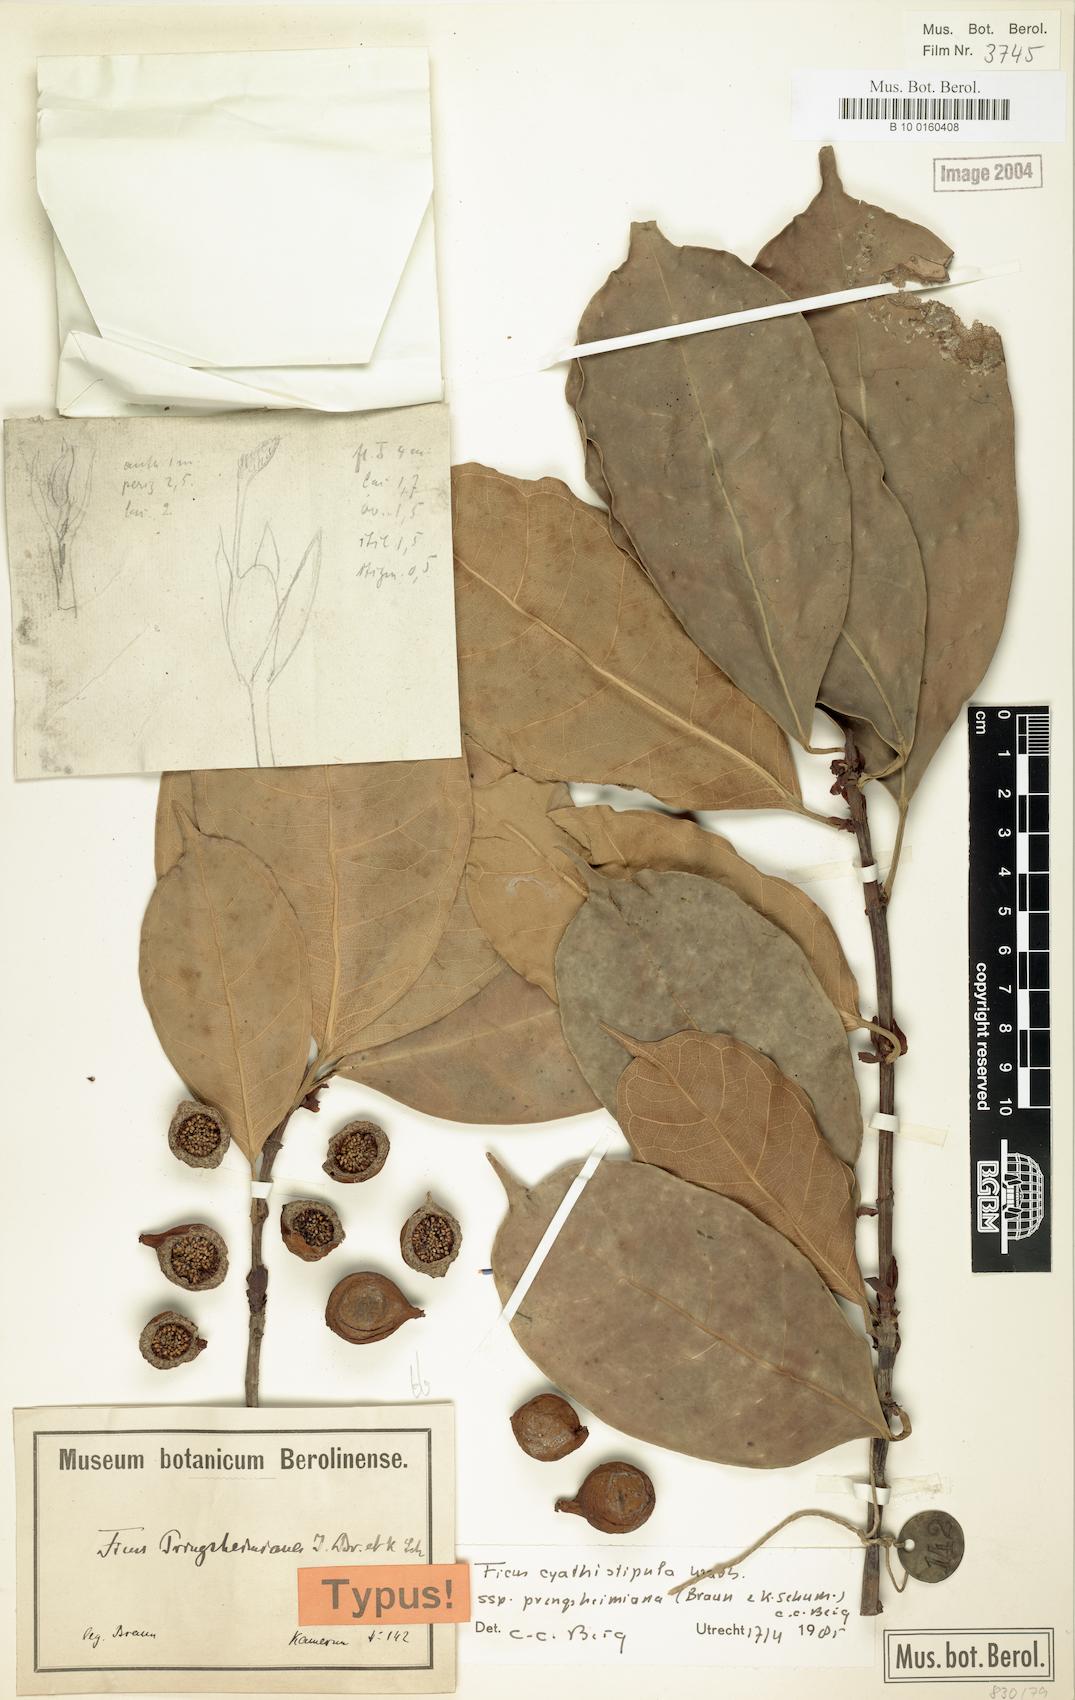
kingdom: Plantae
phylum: Tracheophyta
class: Magnoliopsida
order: Rosales
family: Moraceae
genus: Ficus
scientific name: Ficus cyathistipula
